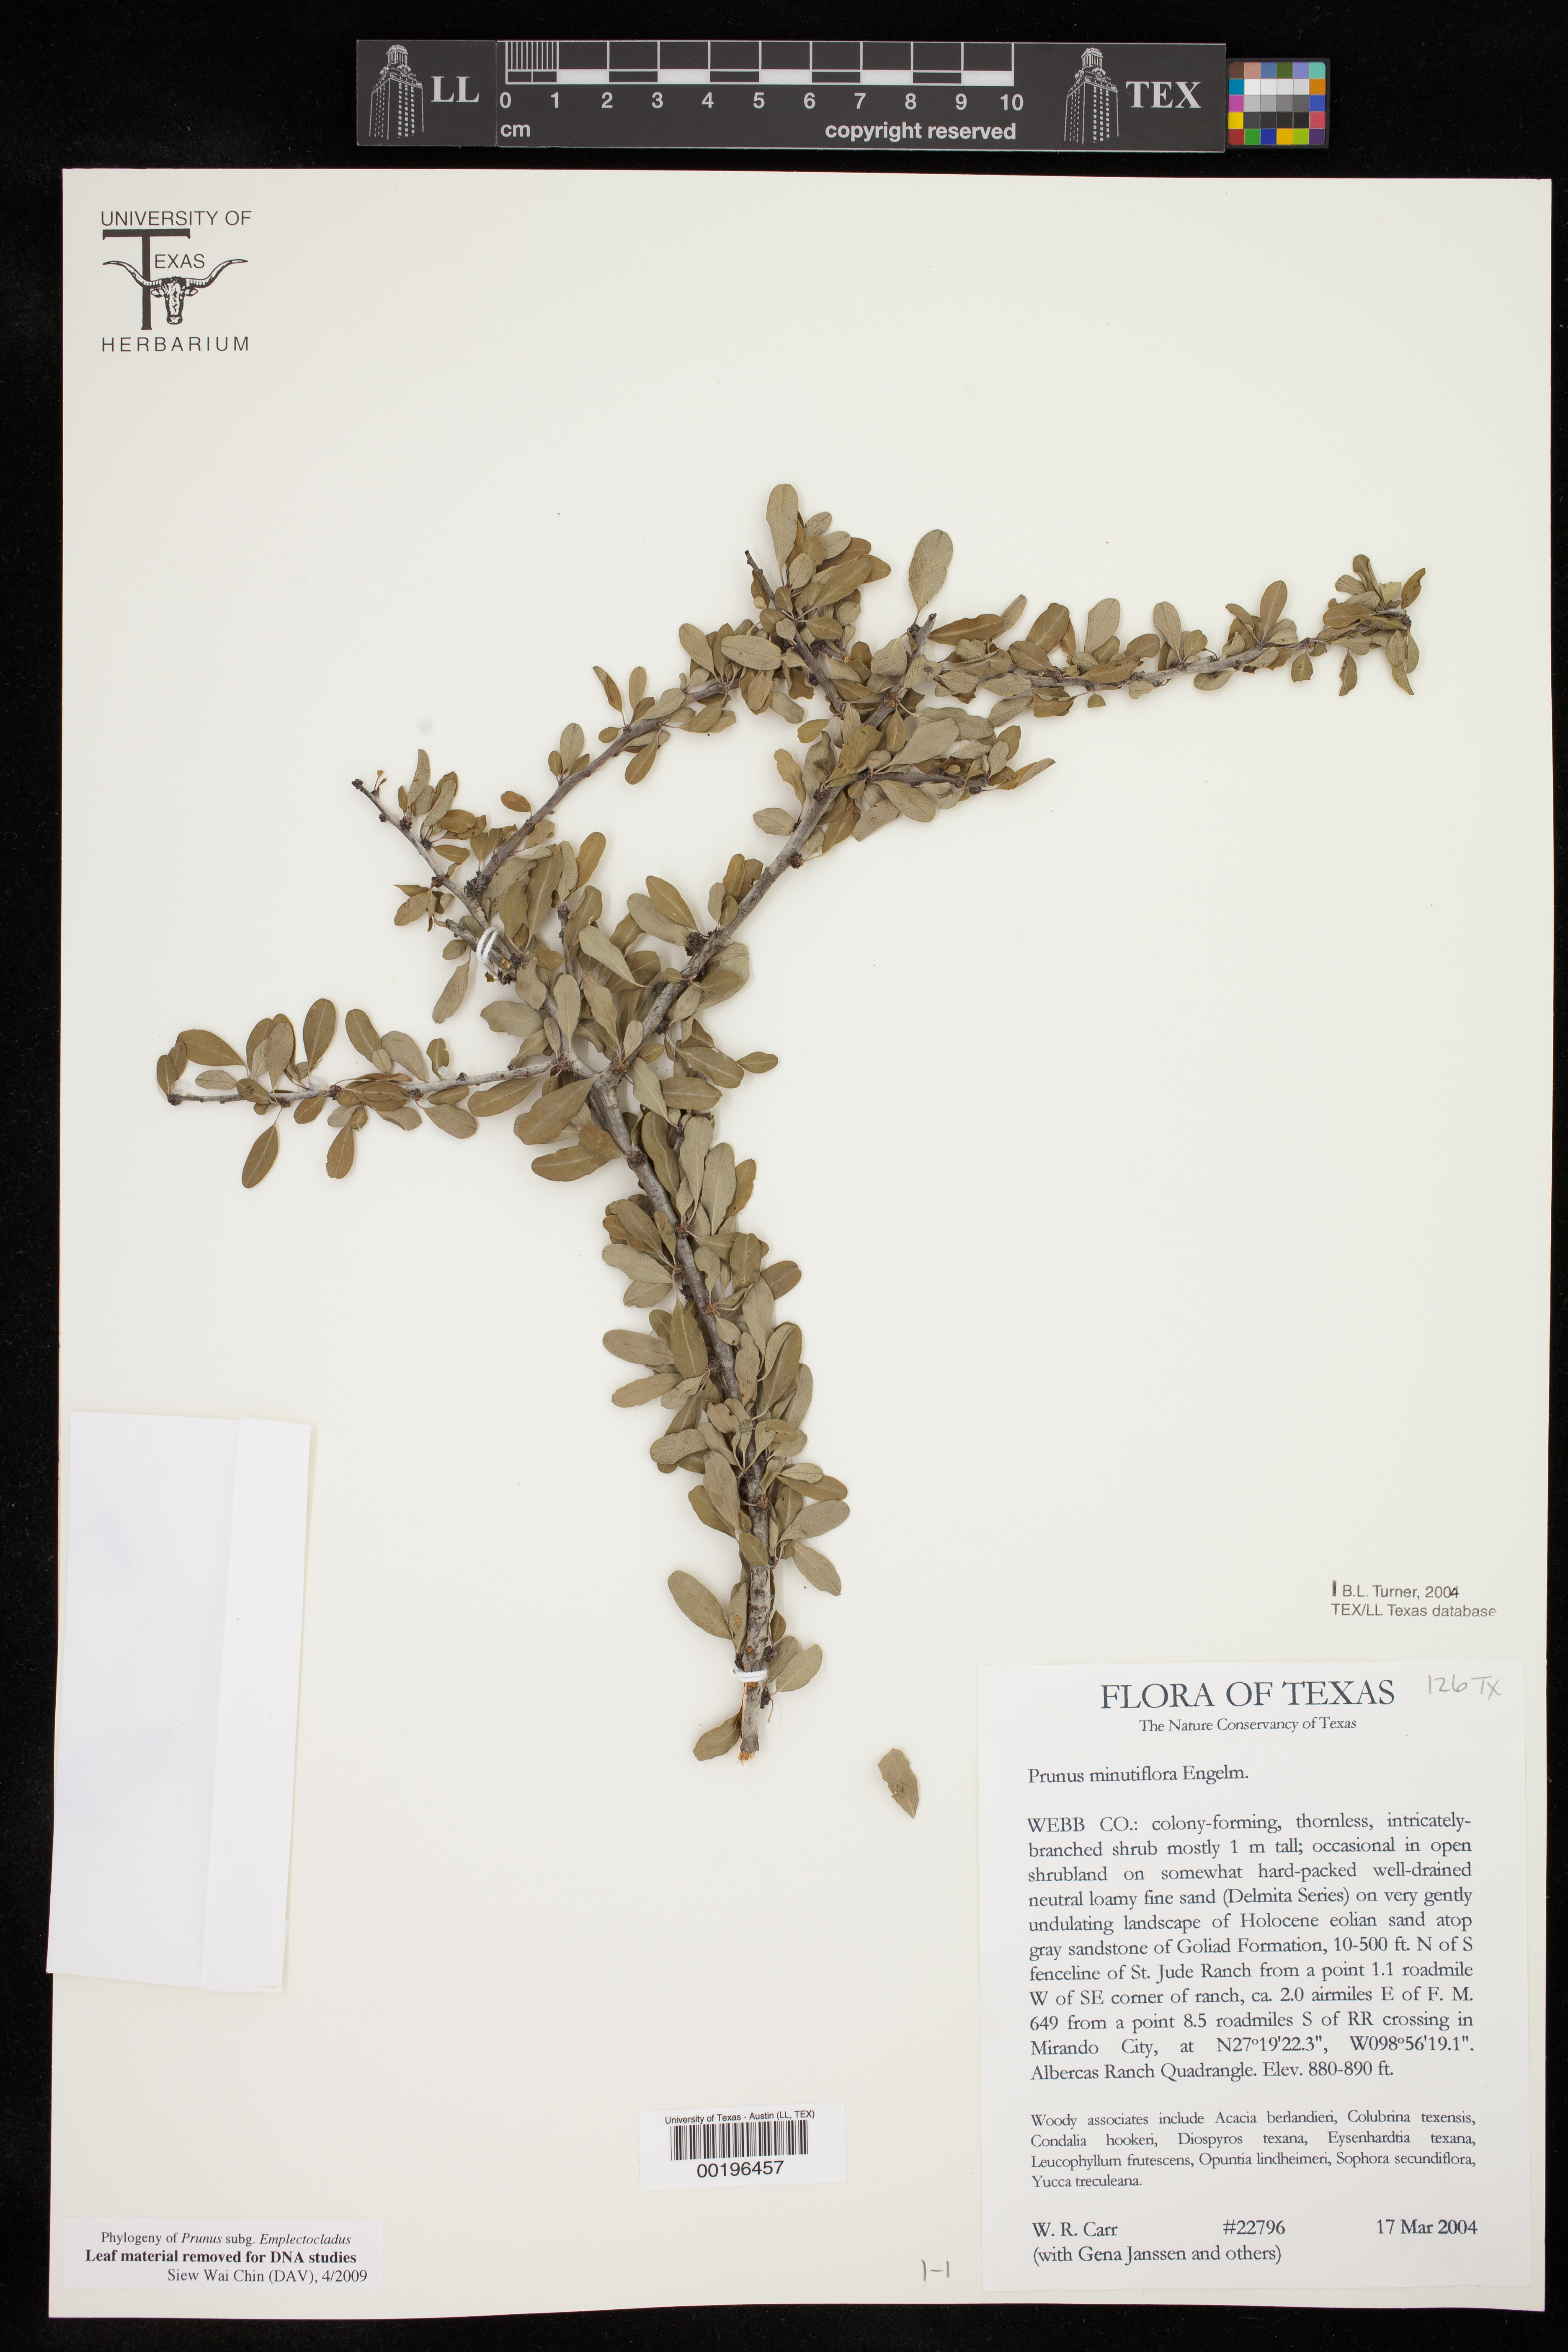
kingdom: Plantae
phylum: Tracheophyta
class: Magnoliopsida
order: Rosales
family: Rosaceae
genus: Prunus
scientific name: Prunus minutiflora
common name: Texas almond
